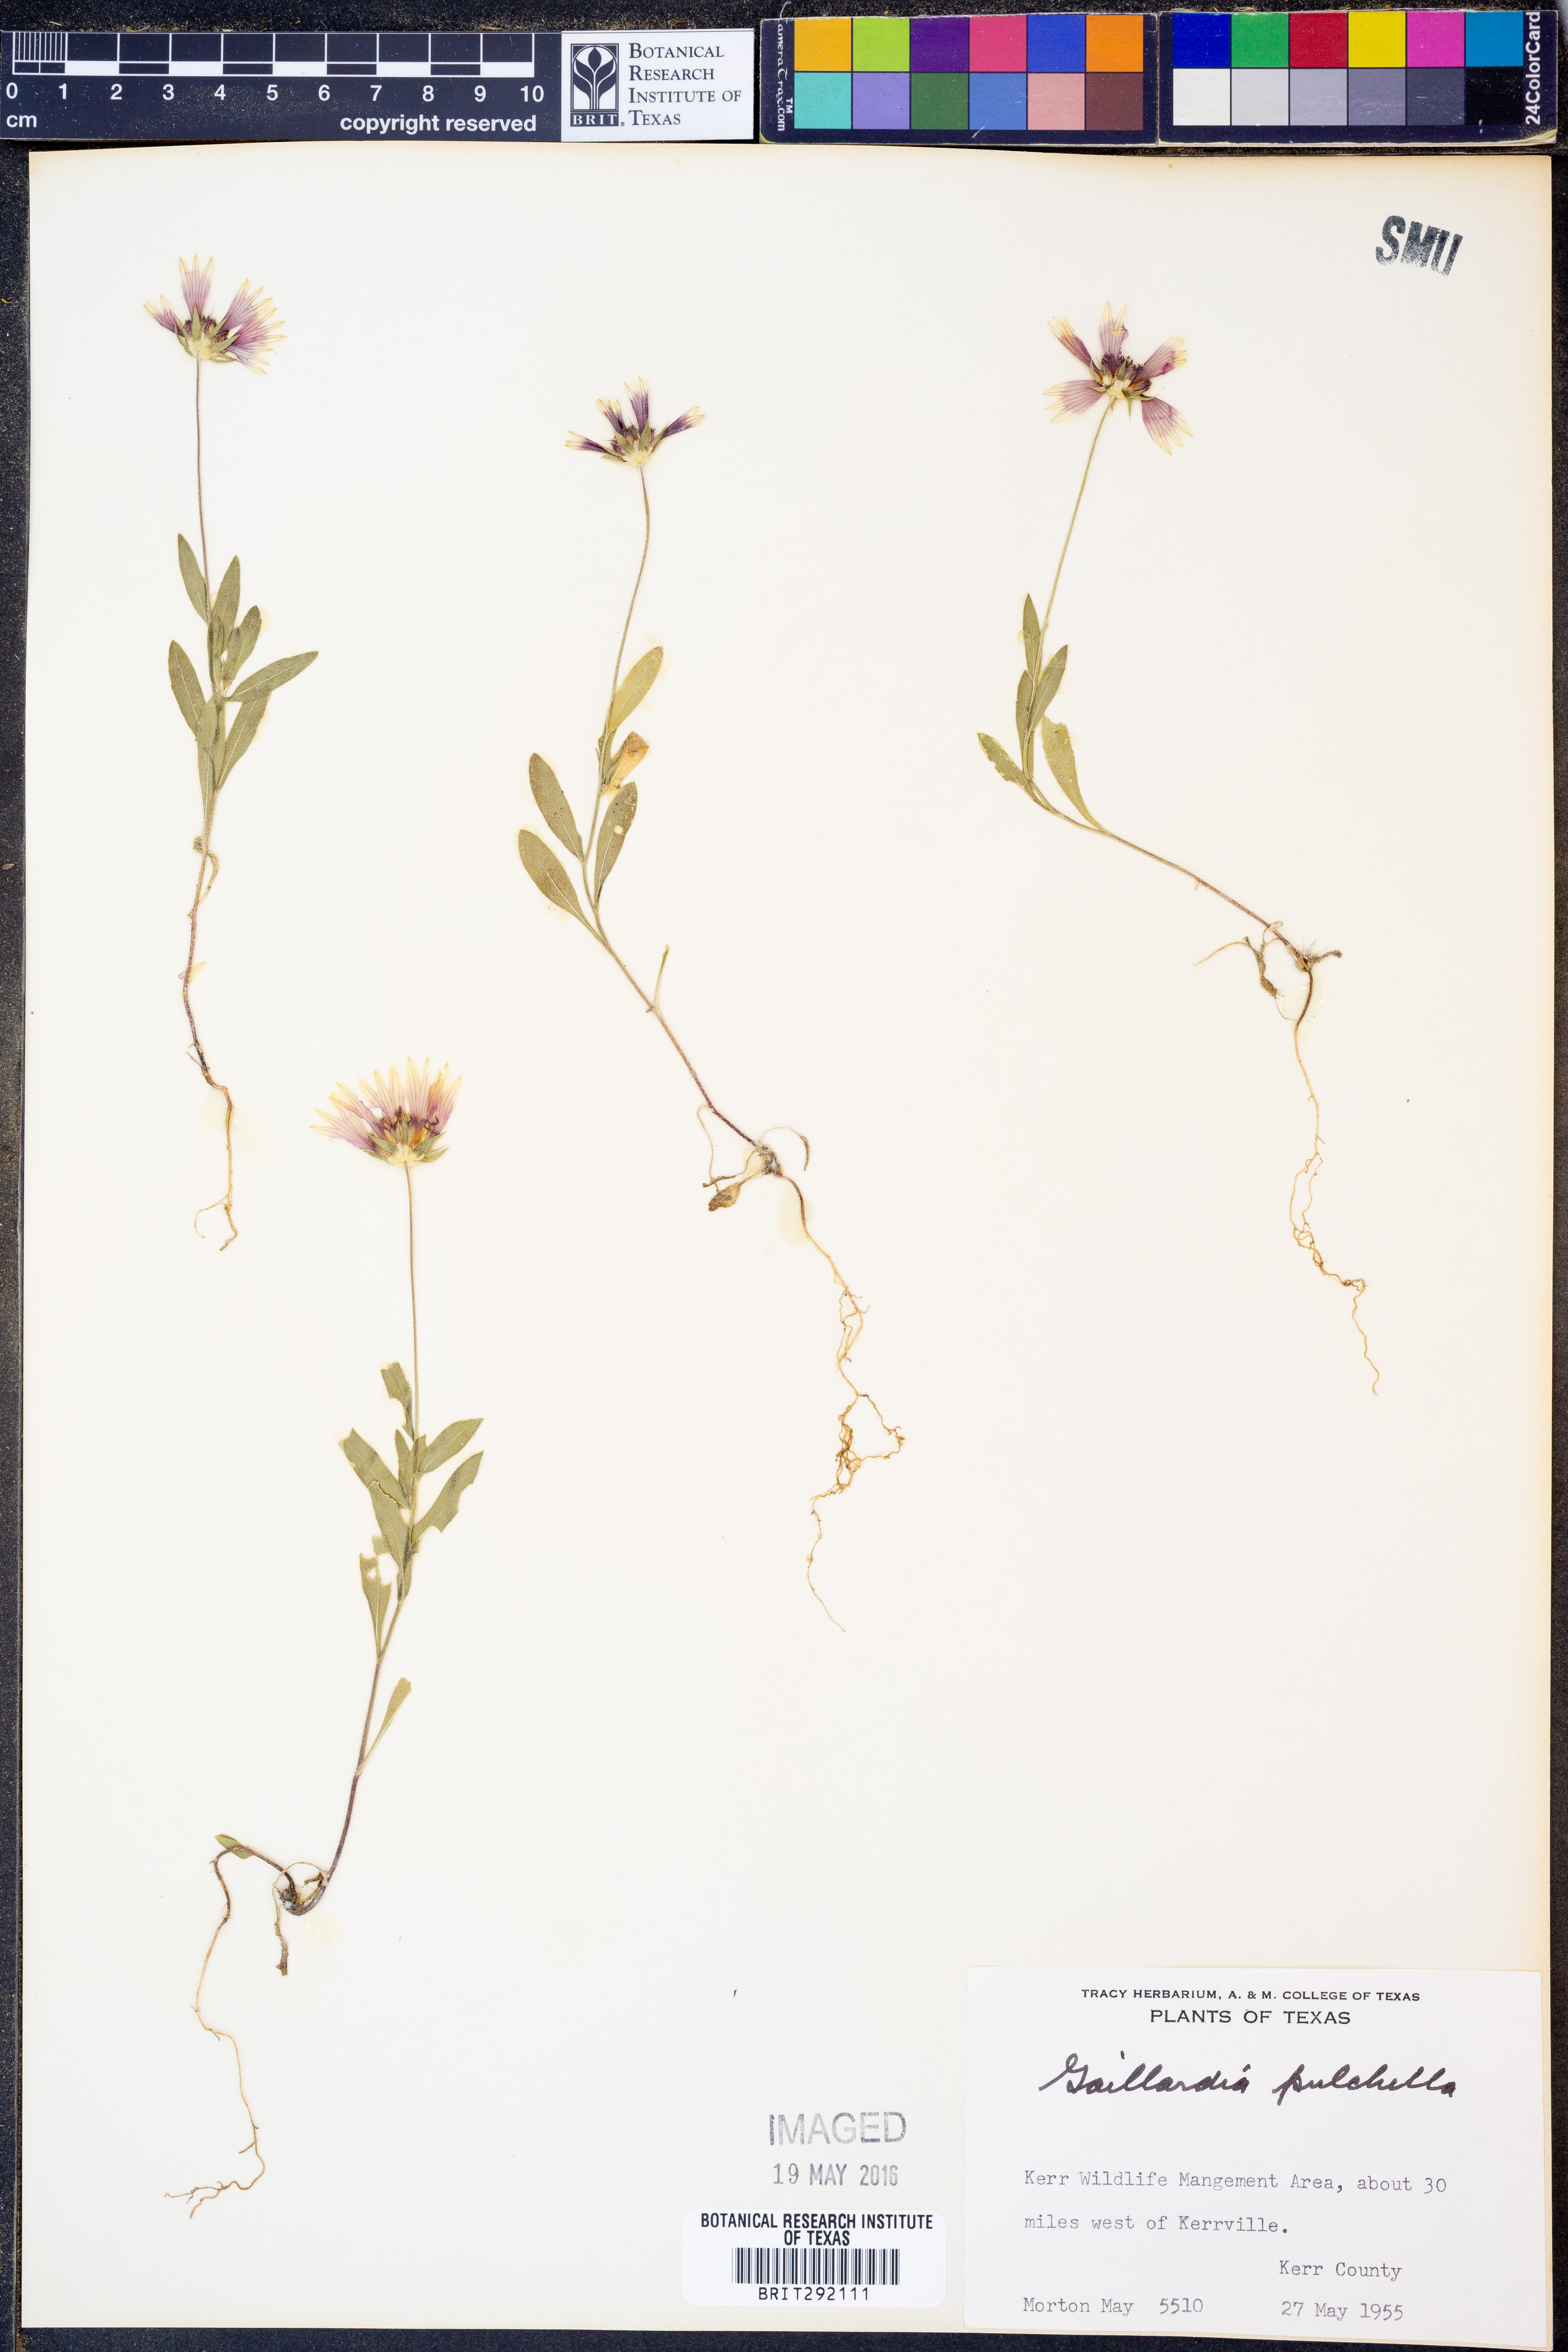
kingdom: Plantae
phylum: Tracheophyta
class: Magnoliopsida
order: Asterales
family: Asteraceae
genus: Gaillardia
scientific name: Gaillardia pulchella
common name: Firewheel
